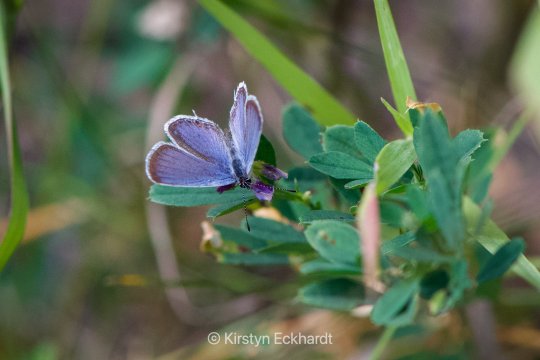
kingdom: Animalia
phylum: Arthropoda
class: Insecta
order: Lepidoptera
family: Lycaenidae
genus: Elkalyce
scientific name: Elkalyce comyntas
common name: Eastern Tailed-Blue
